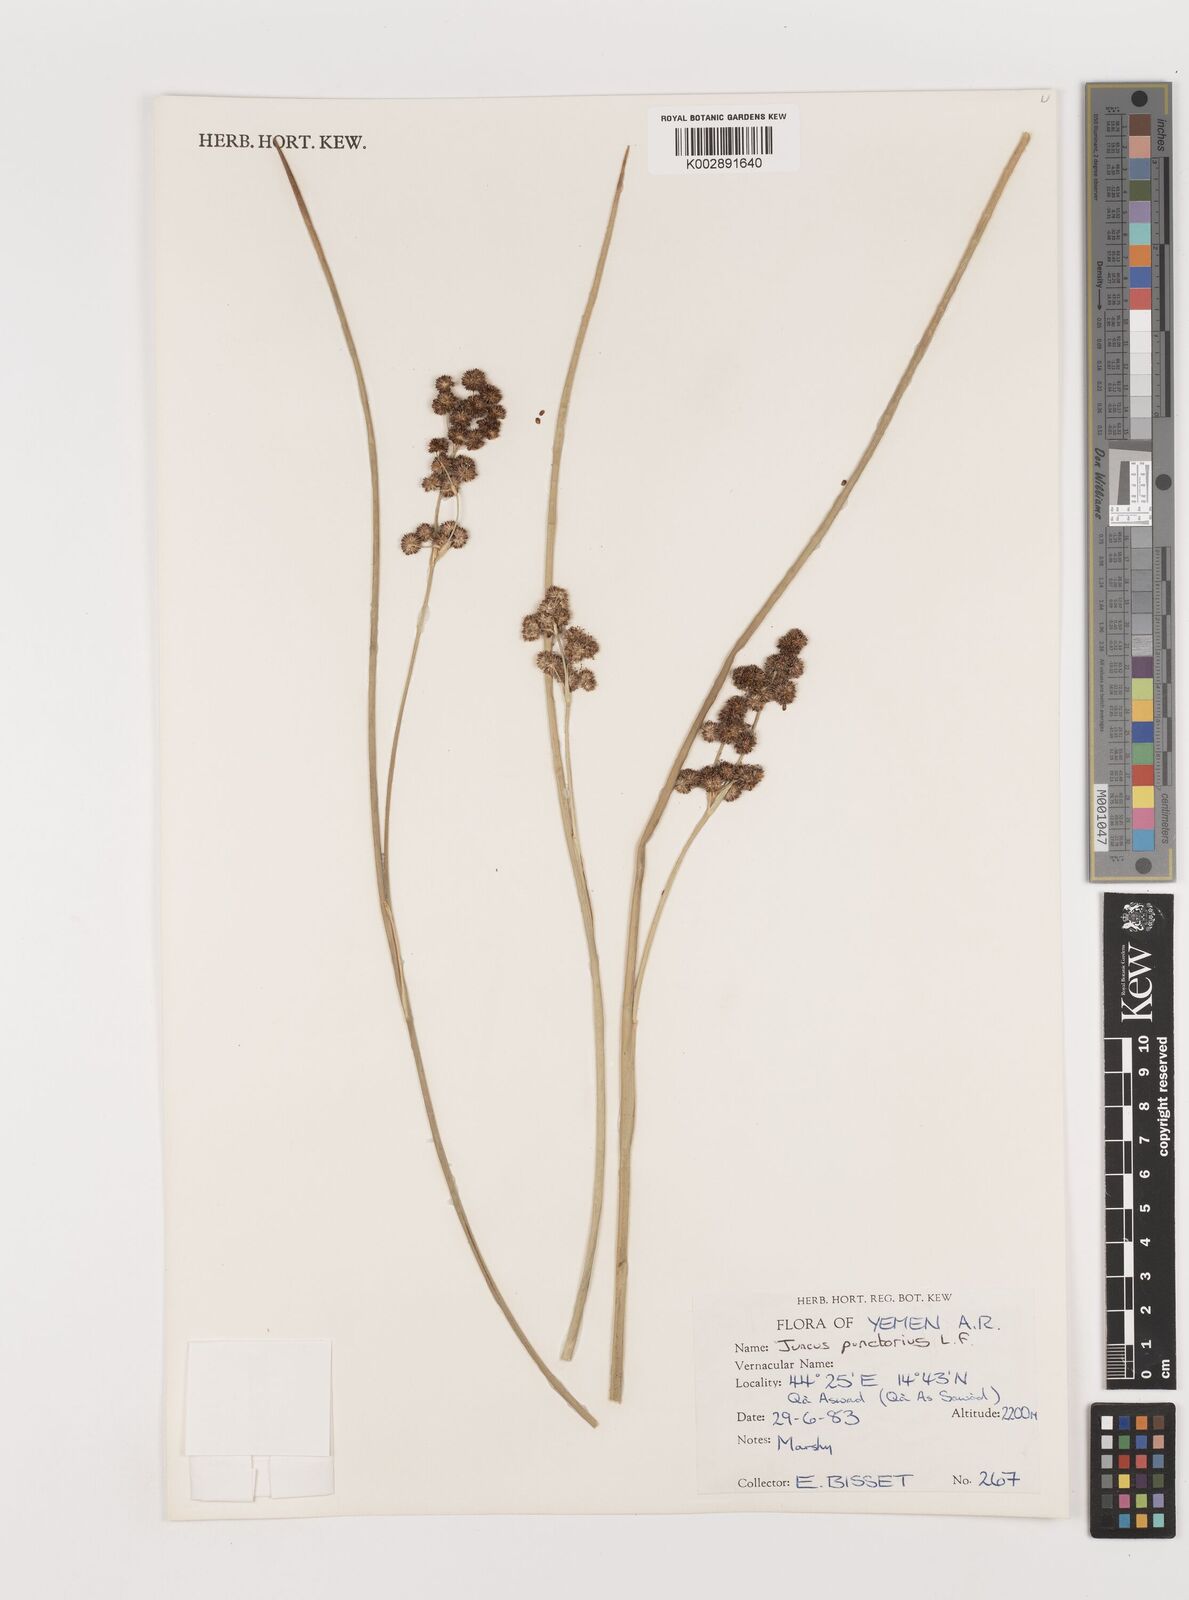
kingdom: Plantae
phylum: Tracheophyta
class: Liliopsida
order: Poales
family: Juncaceae
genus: Juncus
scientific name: Juncus punctorius
